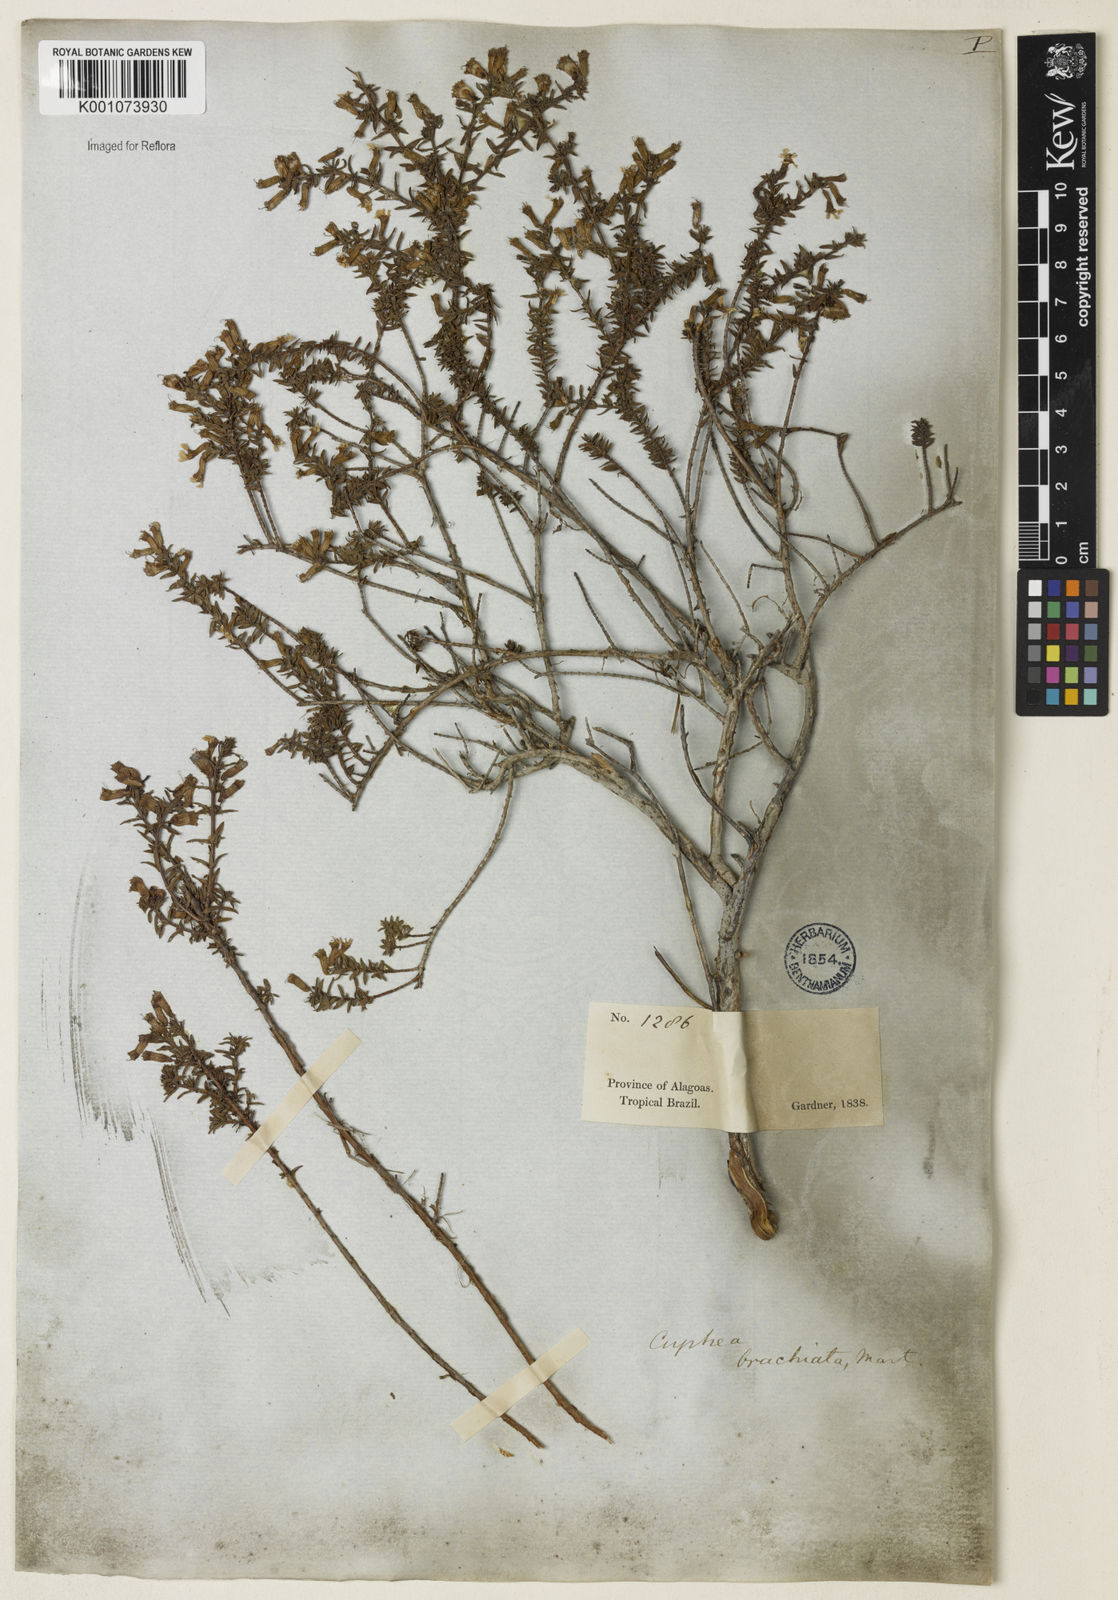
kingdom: Plantae
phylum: Tracheophyta
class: Magnoliopsida
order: Myrtales
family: Lythraceae
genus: Cuphea
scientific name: Cuphea brachiata
